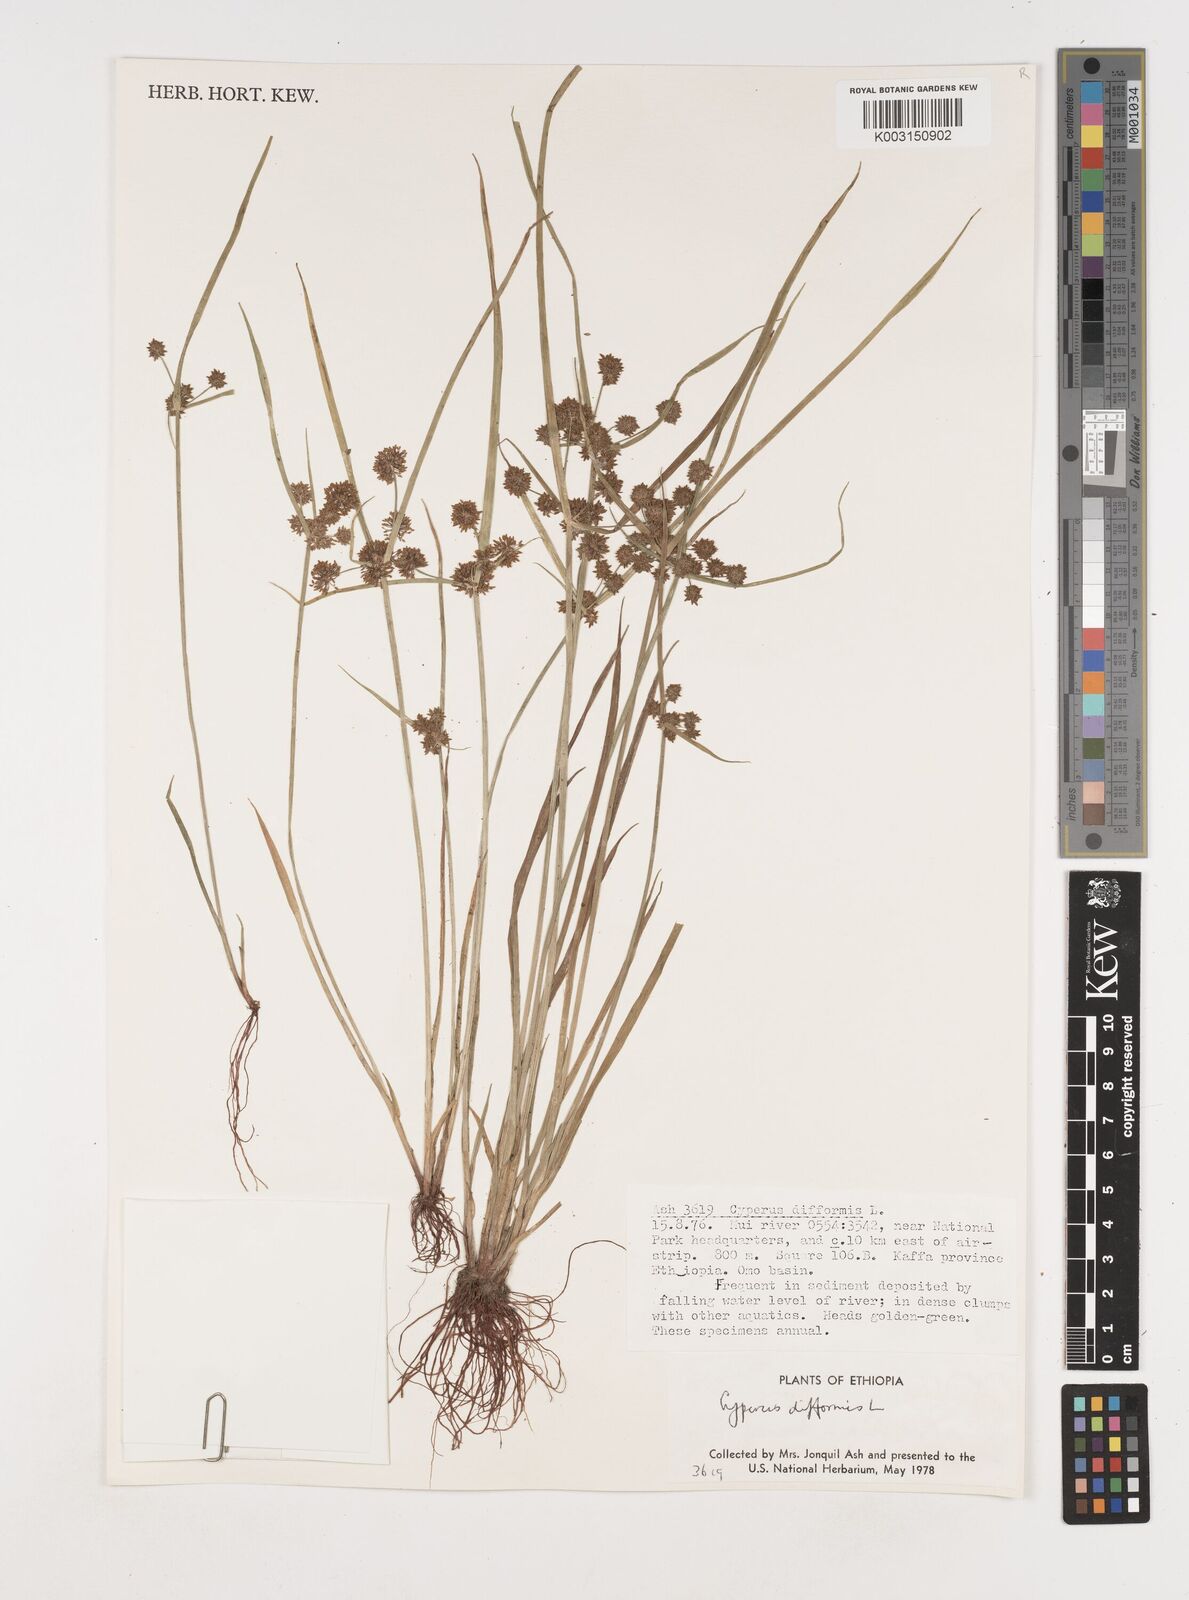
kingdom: Plantae
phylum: Tracheophyta
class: Liliopsida
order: Poales
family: Cyperaceae
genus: Cyperus
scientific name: Cyperus difformis
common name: Variable flatsedge
